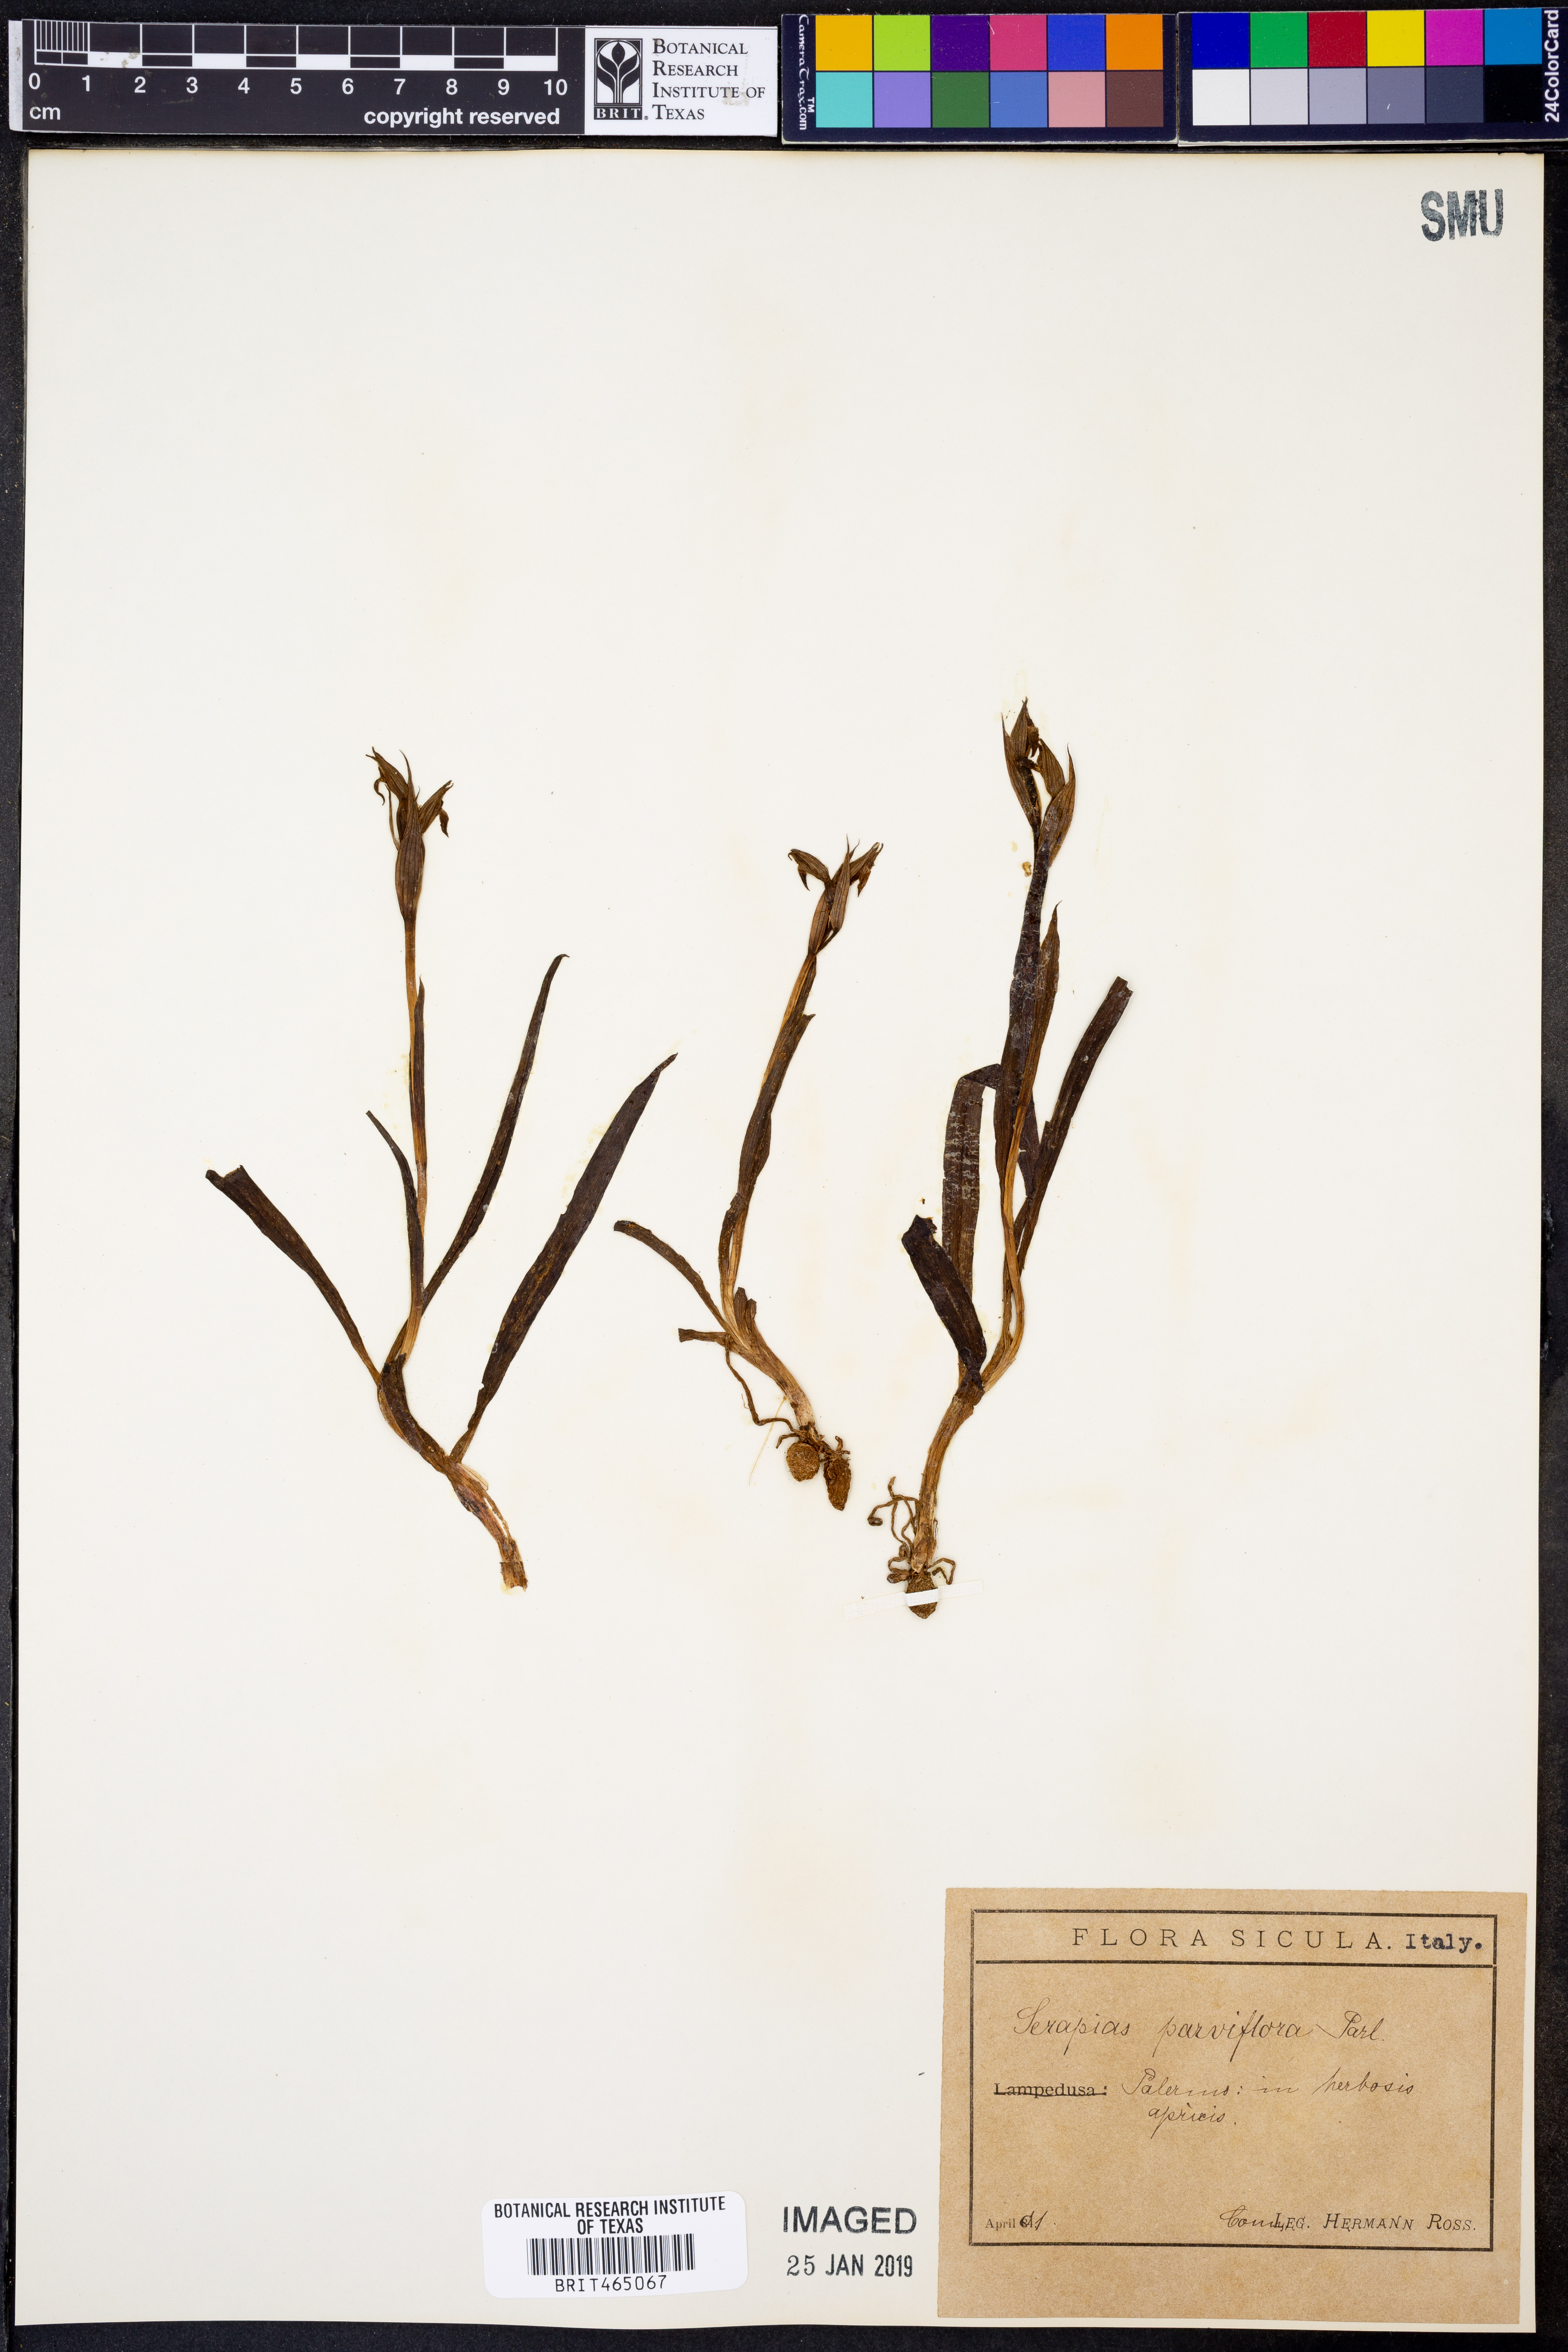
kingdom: Plantae
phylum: Tracheophyta
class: Liliopsida
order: Asparagales
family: Orchidaceae
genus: Serapias
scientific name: Serapias parviflora
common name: Small-flowered tongue-orchid
